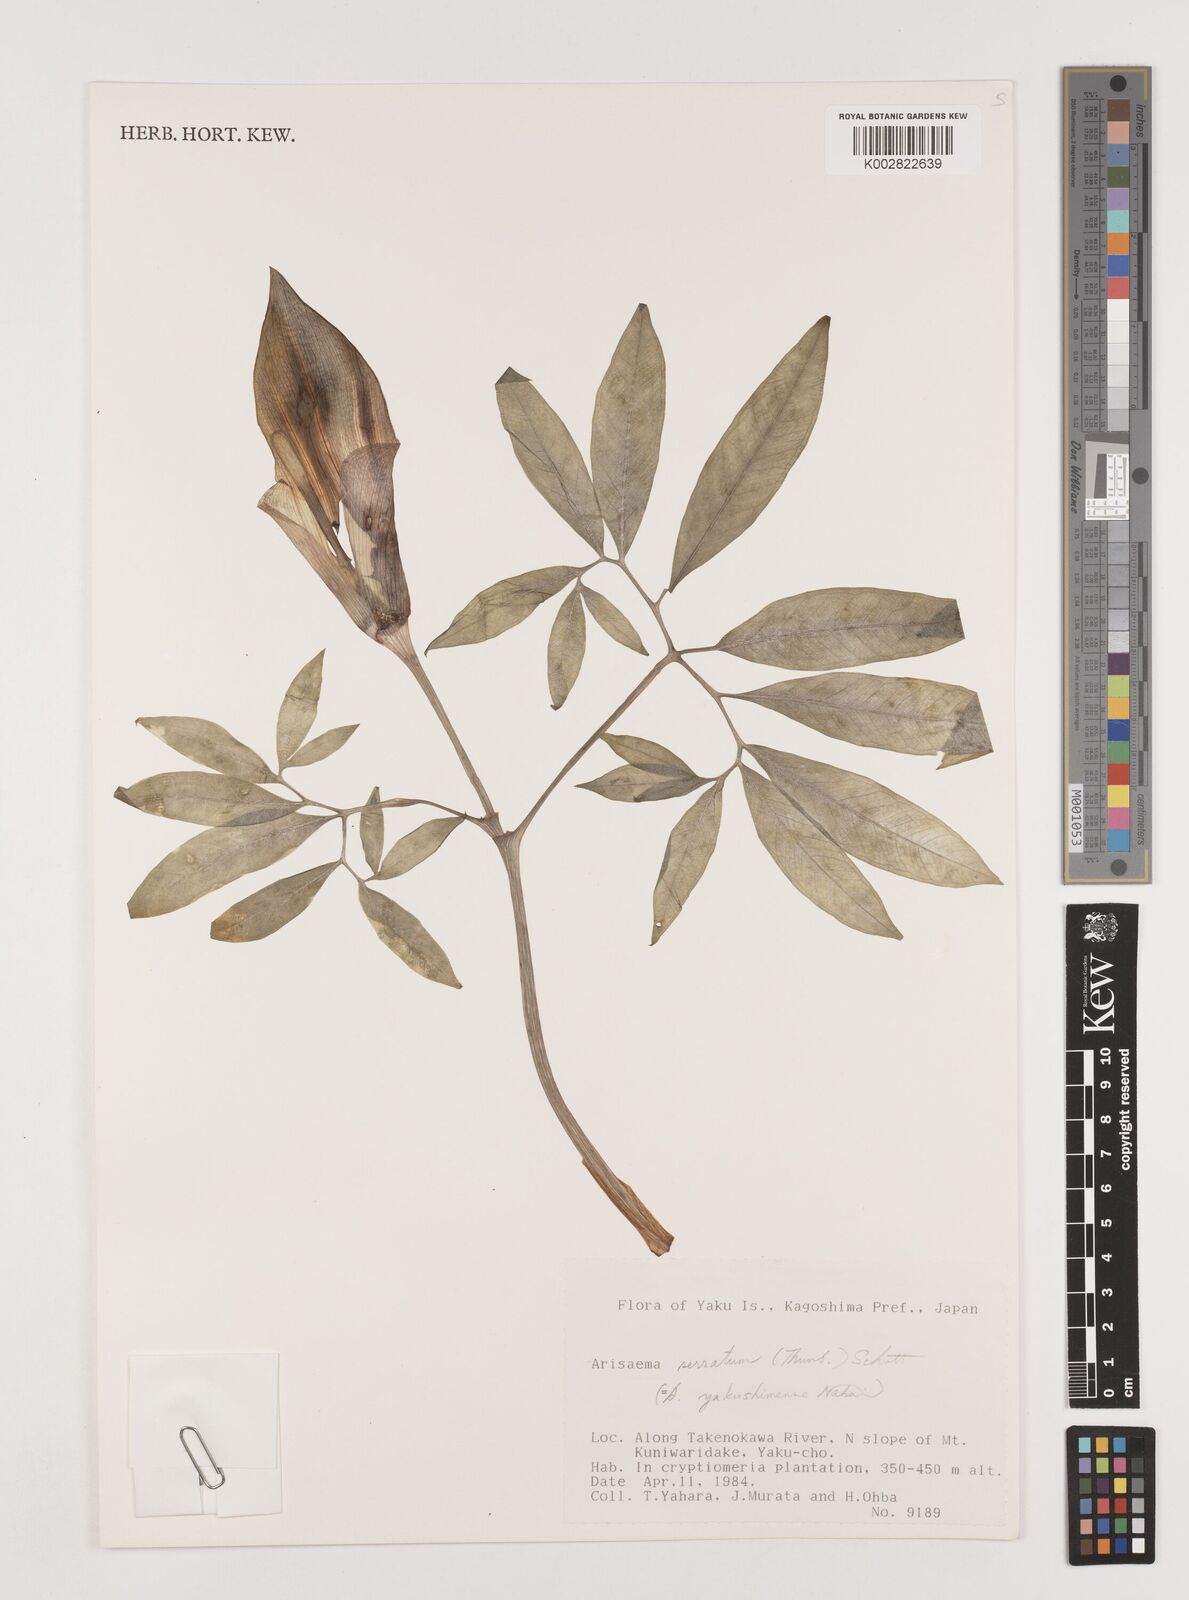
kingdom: Plantae
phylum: Tracheophyta
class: Liliopsida
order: Alismatales
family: Araceae
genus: Arisaema
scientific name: Arisaema serratum
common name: Japanese arisaema
